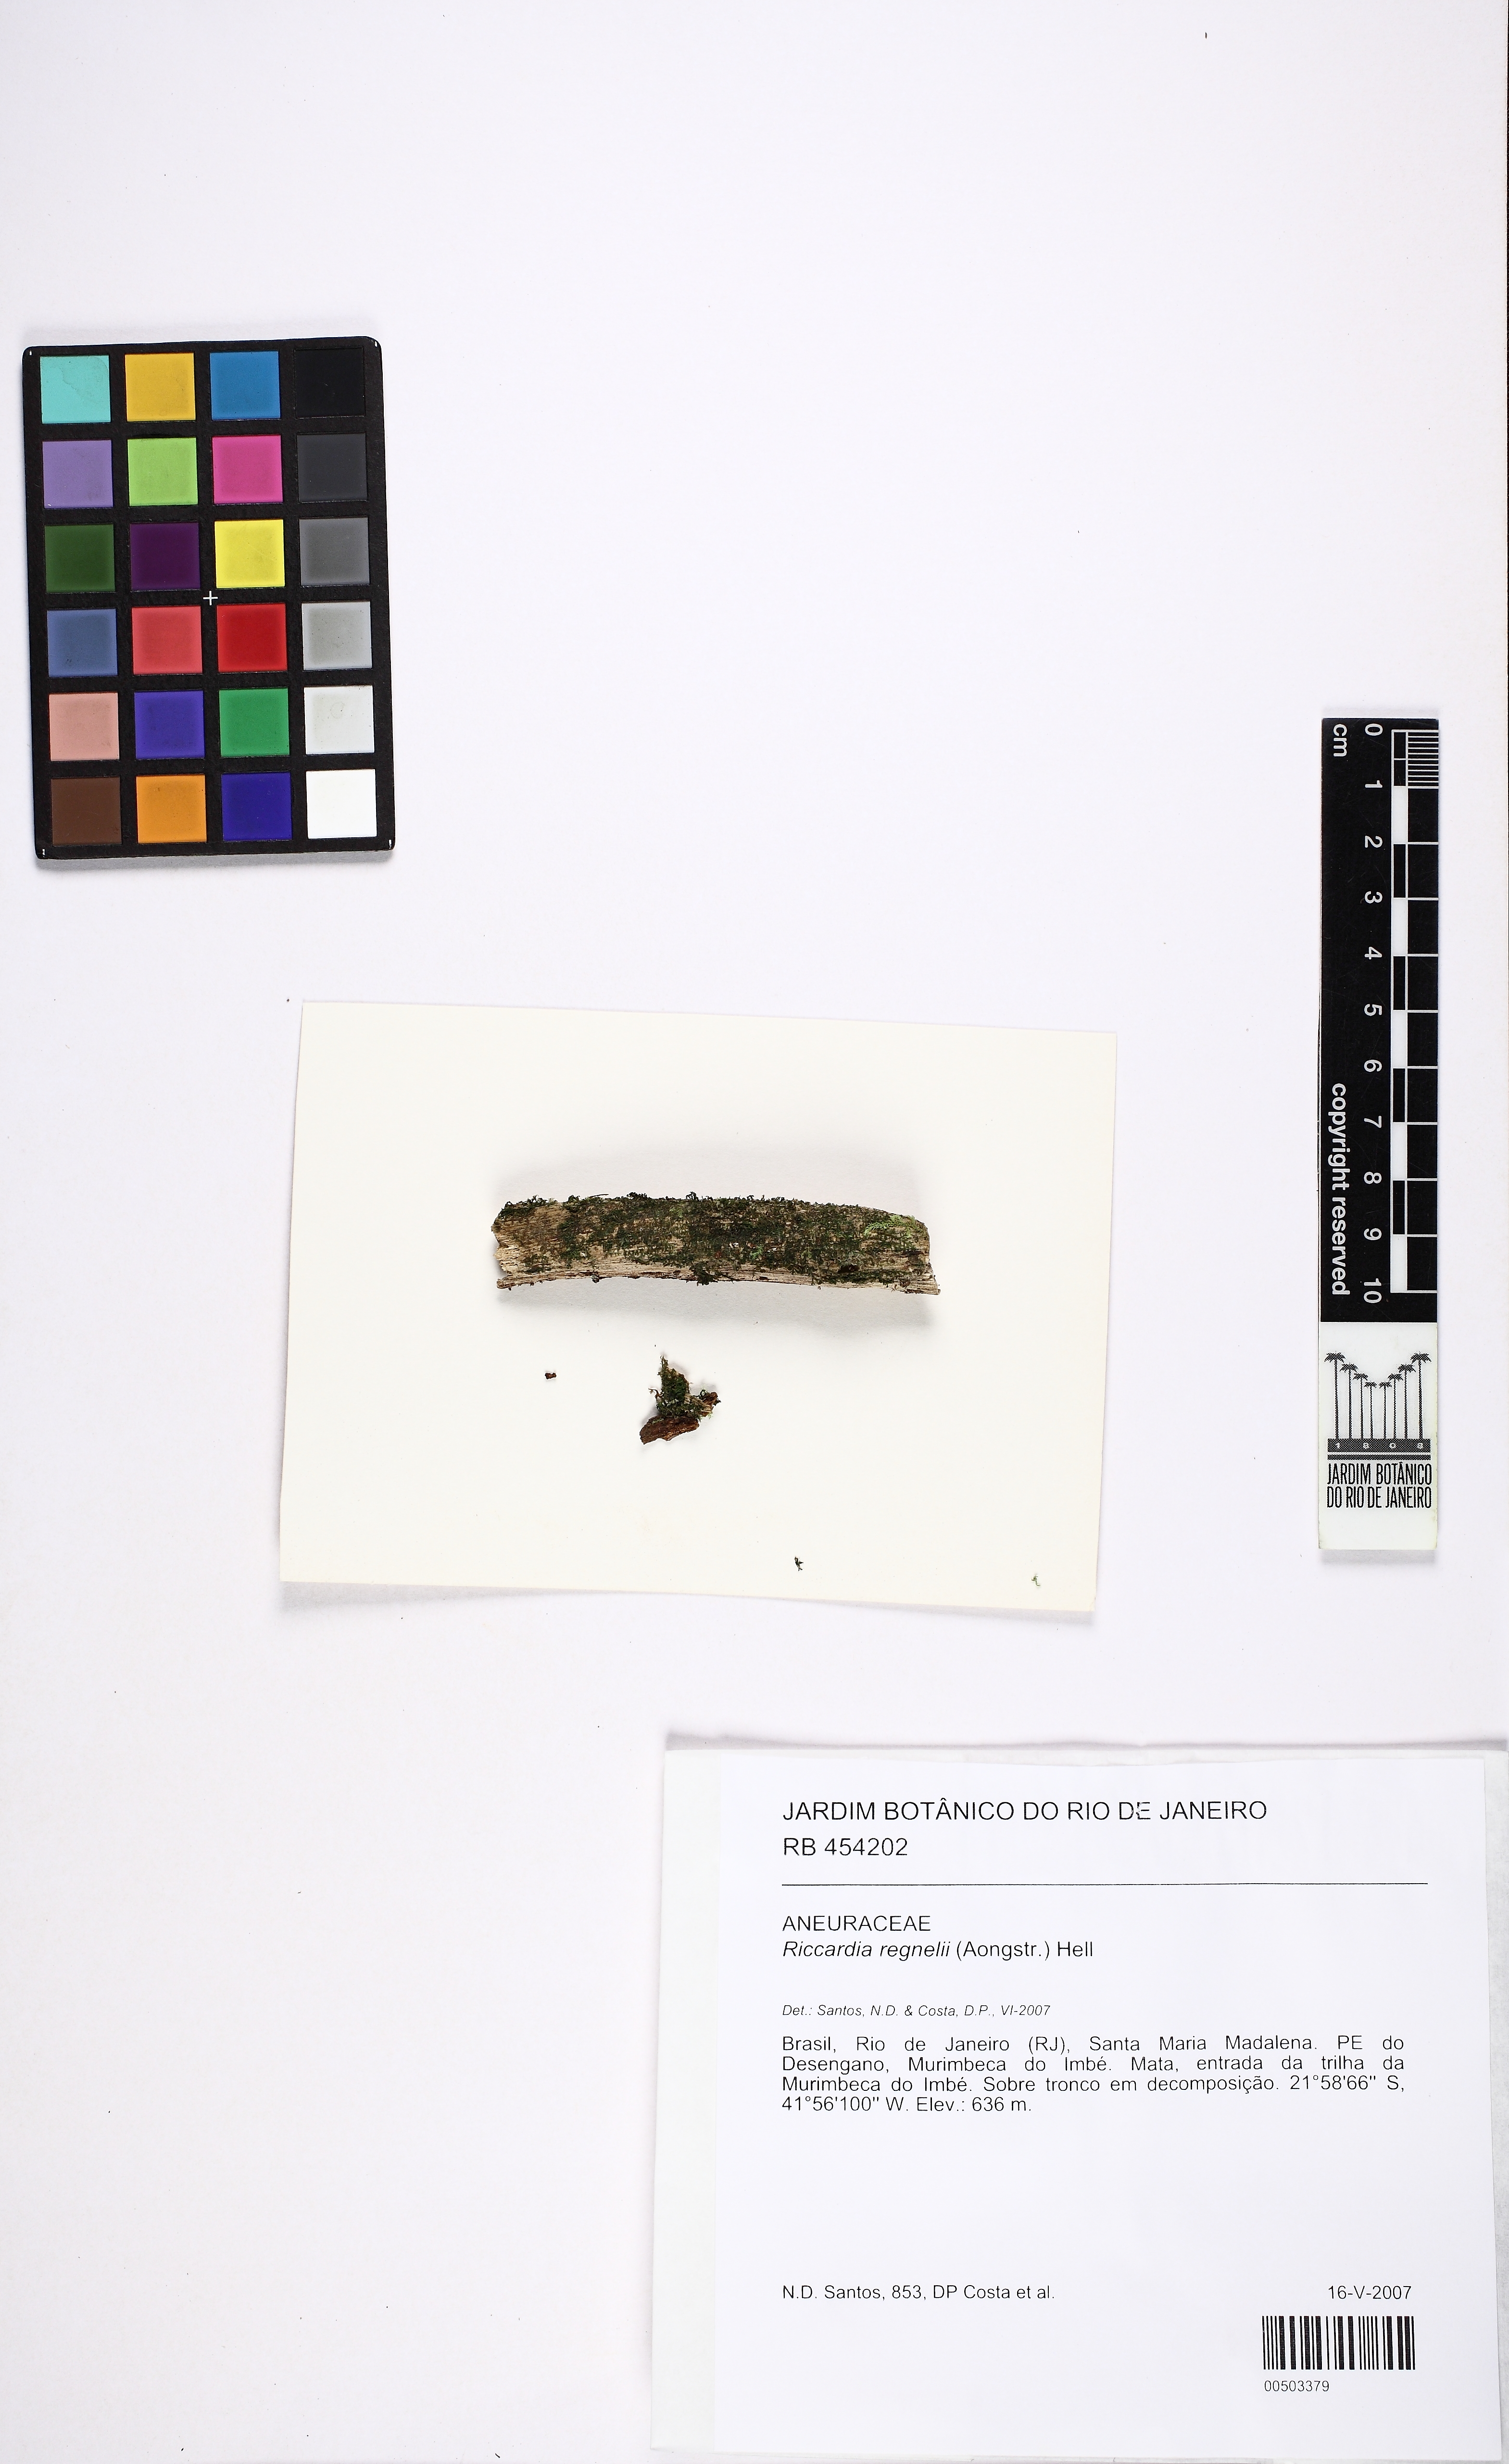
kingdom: Plantae
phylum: Marchantiophyta
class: Jungermanniopsida
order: Metzgeriales
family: Aneuraceae
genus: Riccardia
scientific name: Riccardia regnellii
